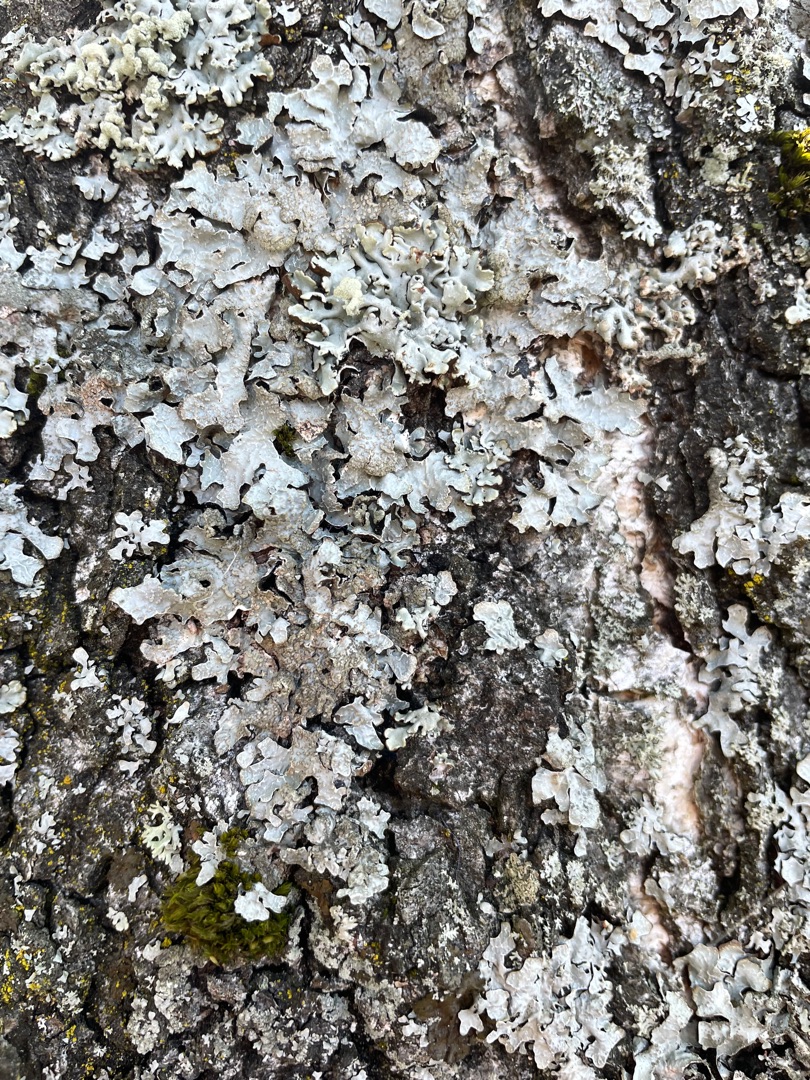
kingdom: Fungi
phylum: Ascomycota
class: Lecanoromycetes
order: Lecanorales
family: Parmeliaceae
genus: Parmelia
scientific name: Parmelia sulcata
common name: Rynket skållav
